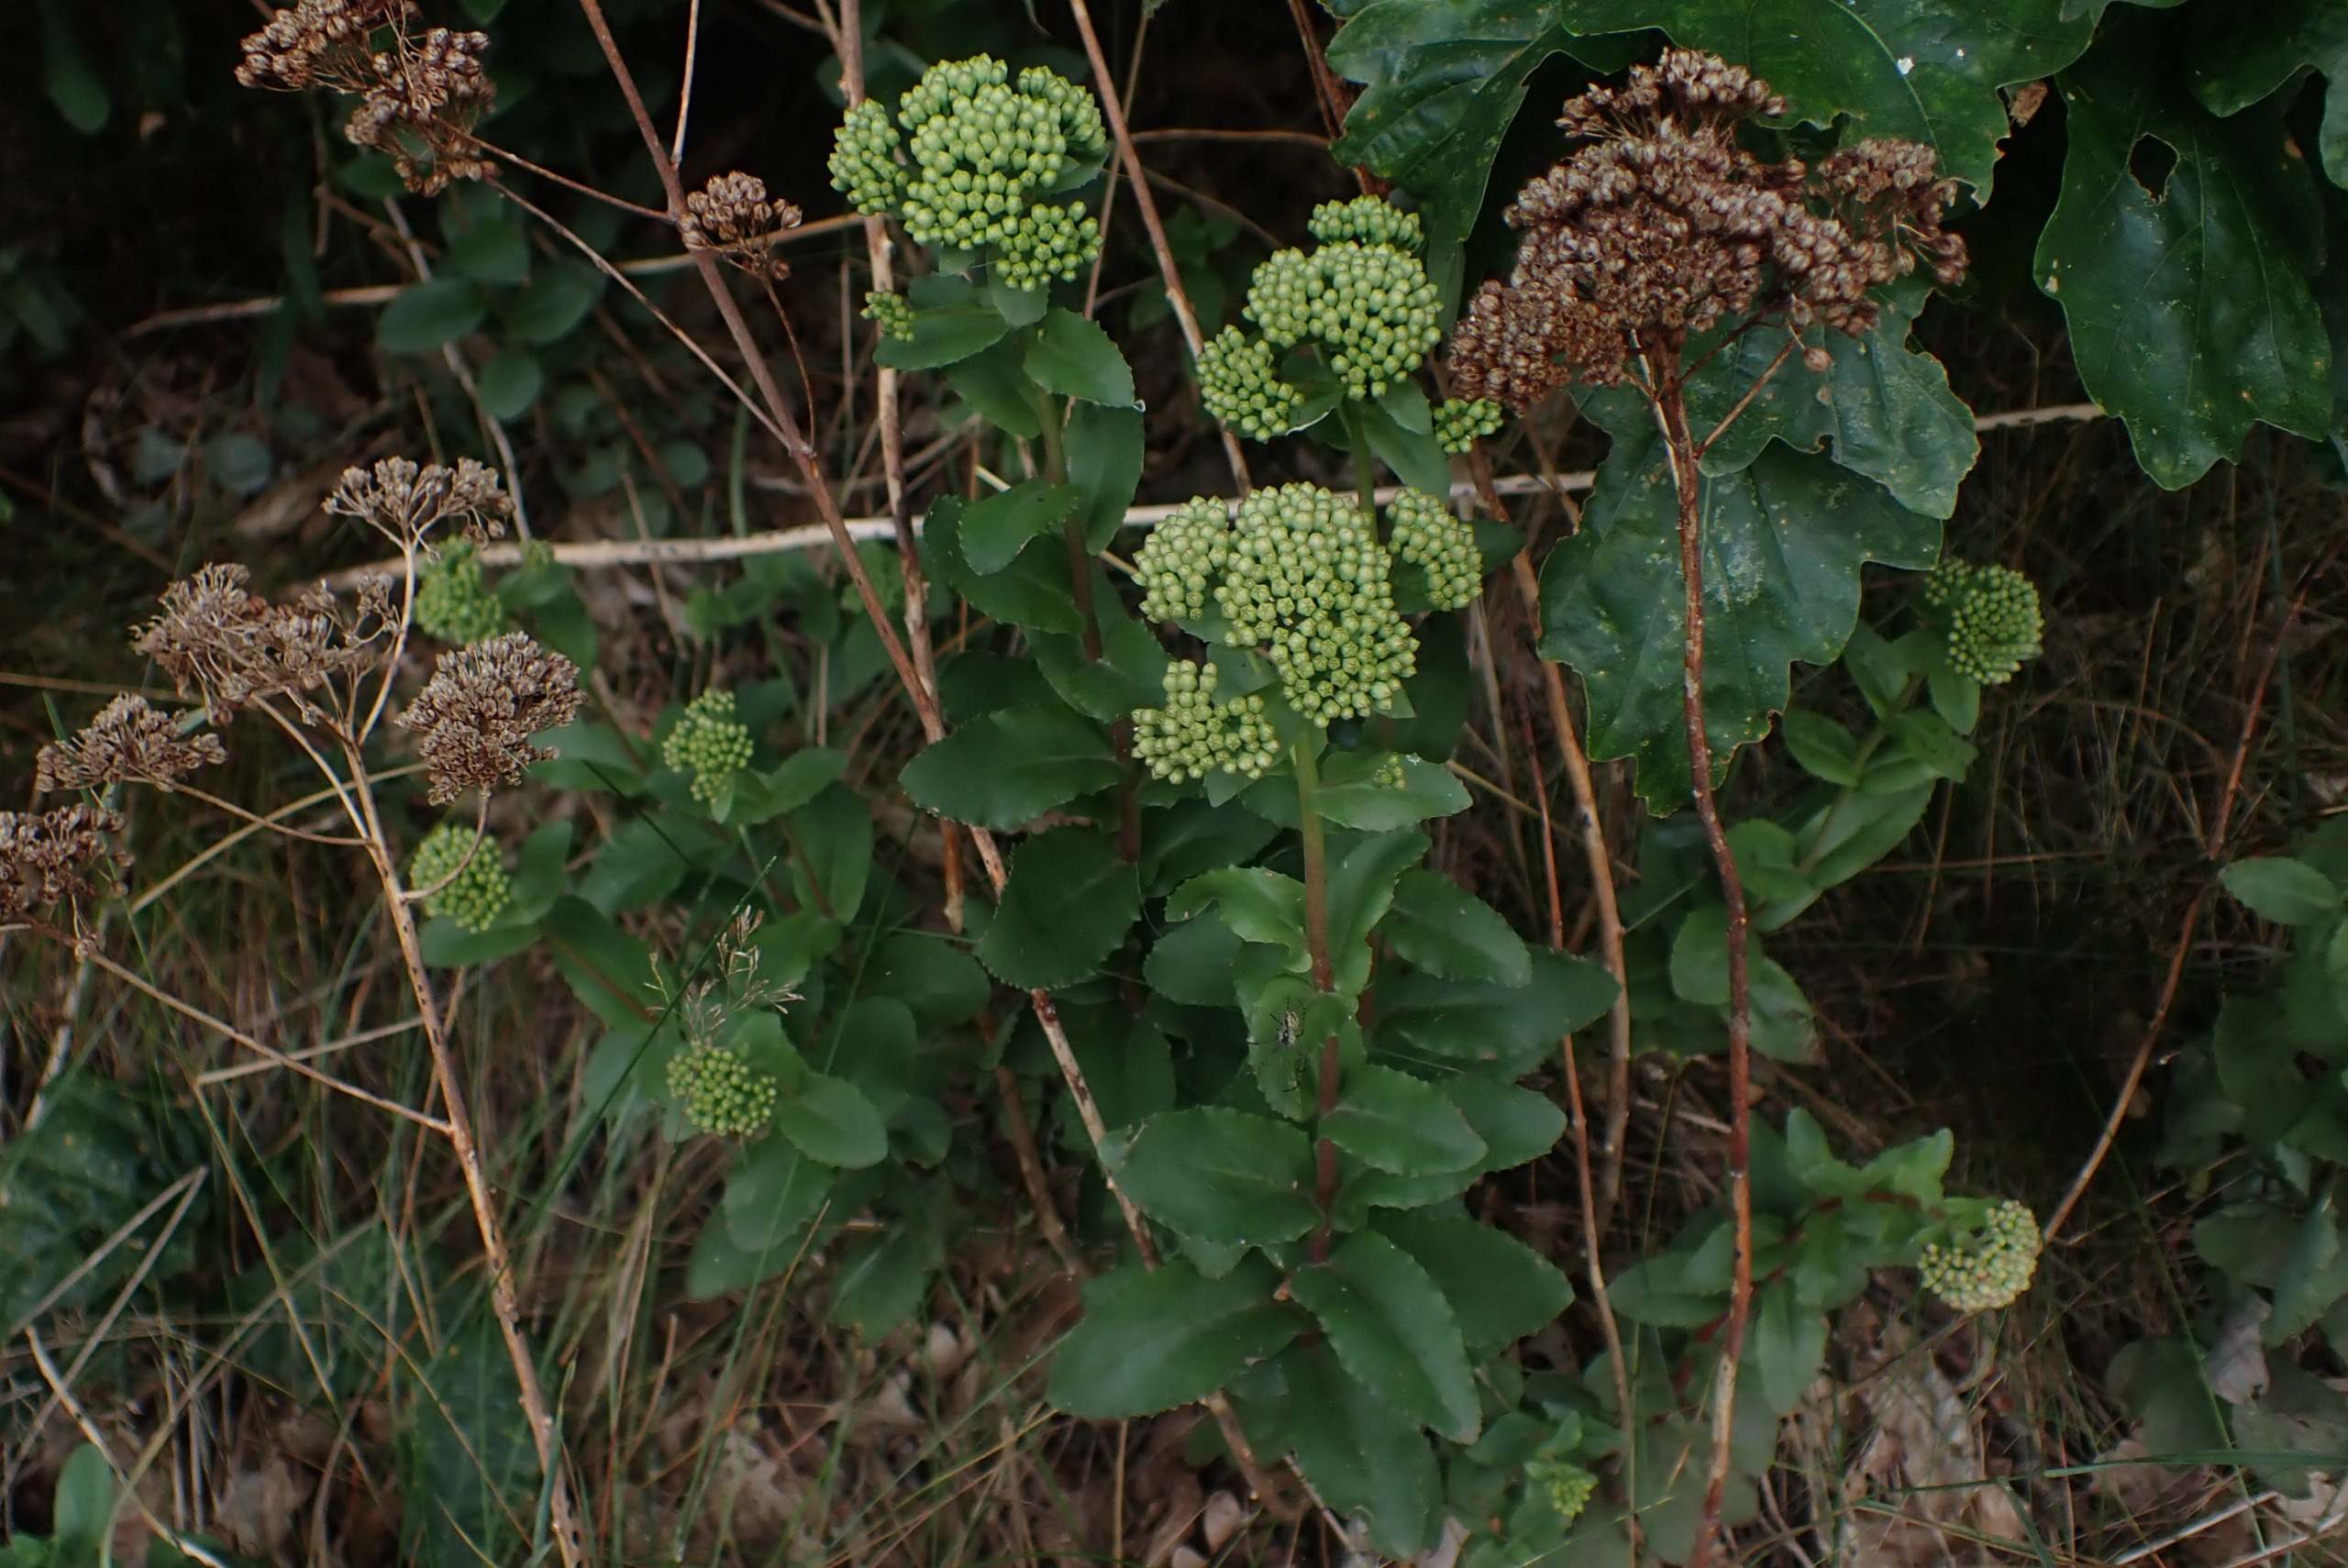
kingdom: Plantae
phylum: Tracheophyta
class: Magnoliopsida
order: Saxifragales
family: Crassulaceae
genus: Hylotelephium
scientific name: Hylotelephium maximum
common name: Almindelig sankthansurt
